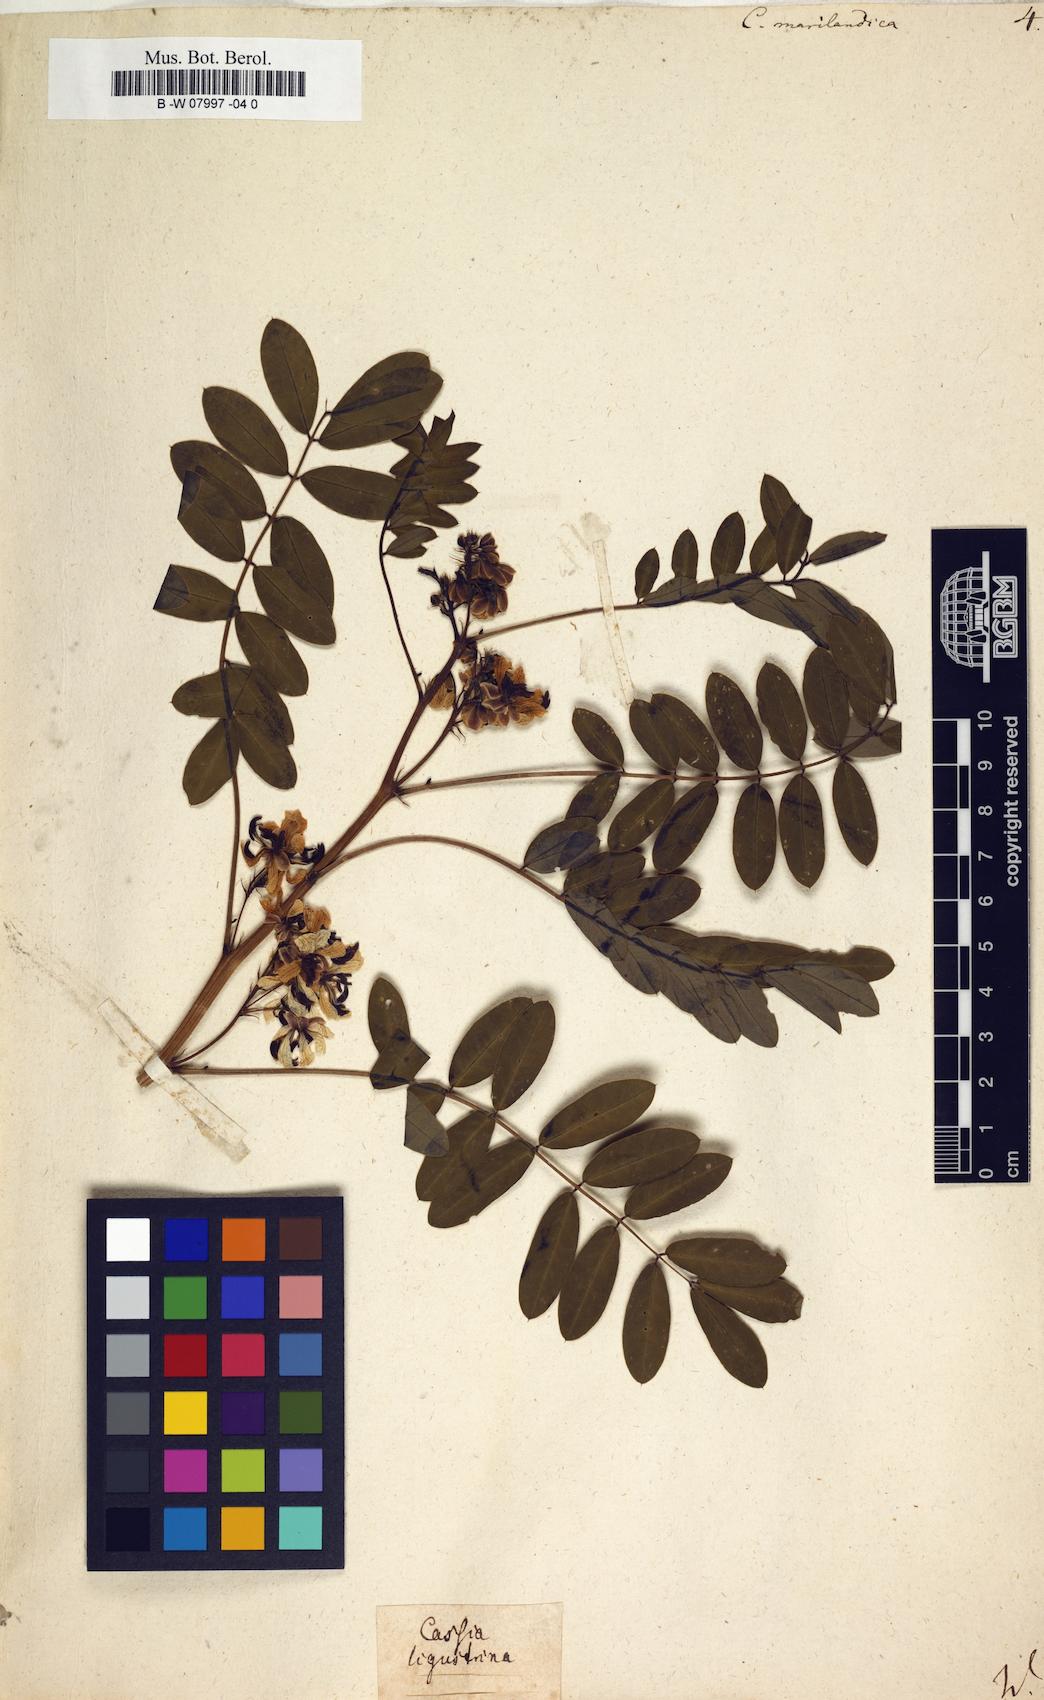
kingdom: Plantae
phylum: Tracheophyta
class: Magnoliopsida
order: Fabales
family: Fabaceae
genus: Senna
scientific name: Senna marilandica
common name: American senna
